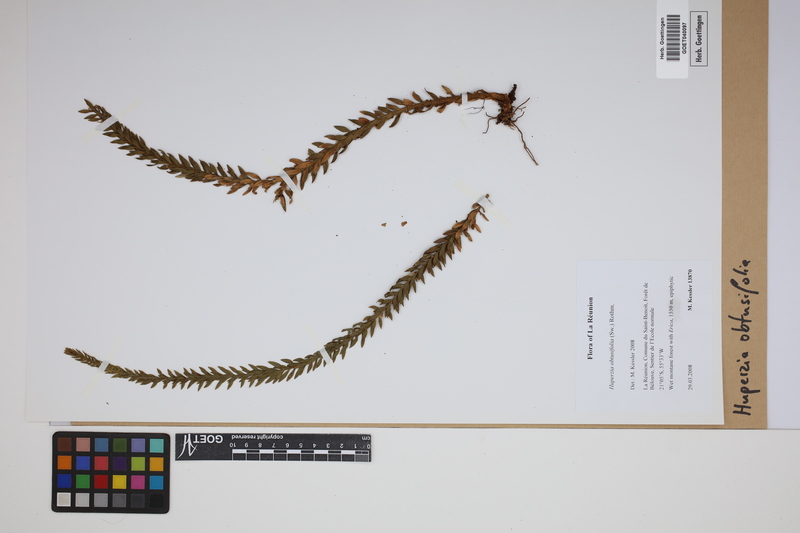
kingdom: Plantae
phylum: Tracheophyta
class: Lycopodiopsida
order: Lycopodiales
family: Lycopodiaceae
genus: Phlegmariurus
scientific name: Phlegmariurus obtusifolius
